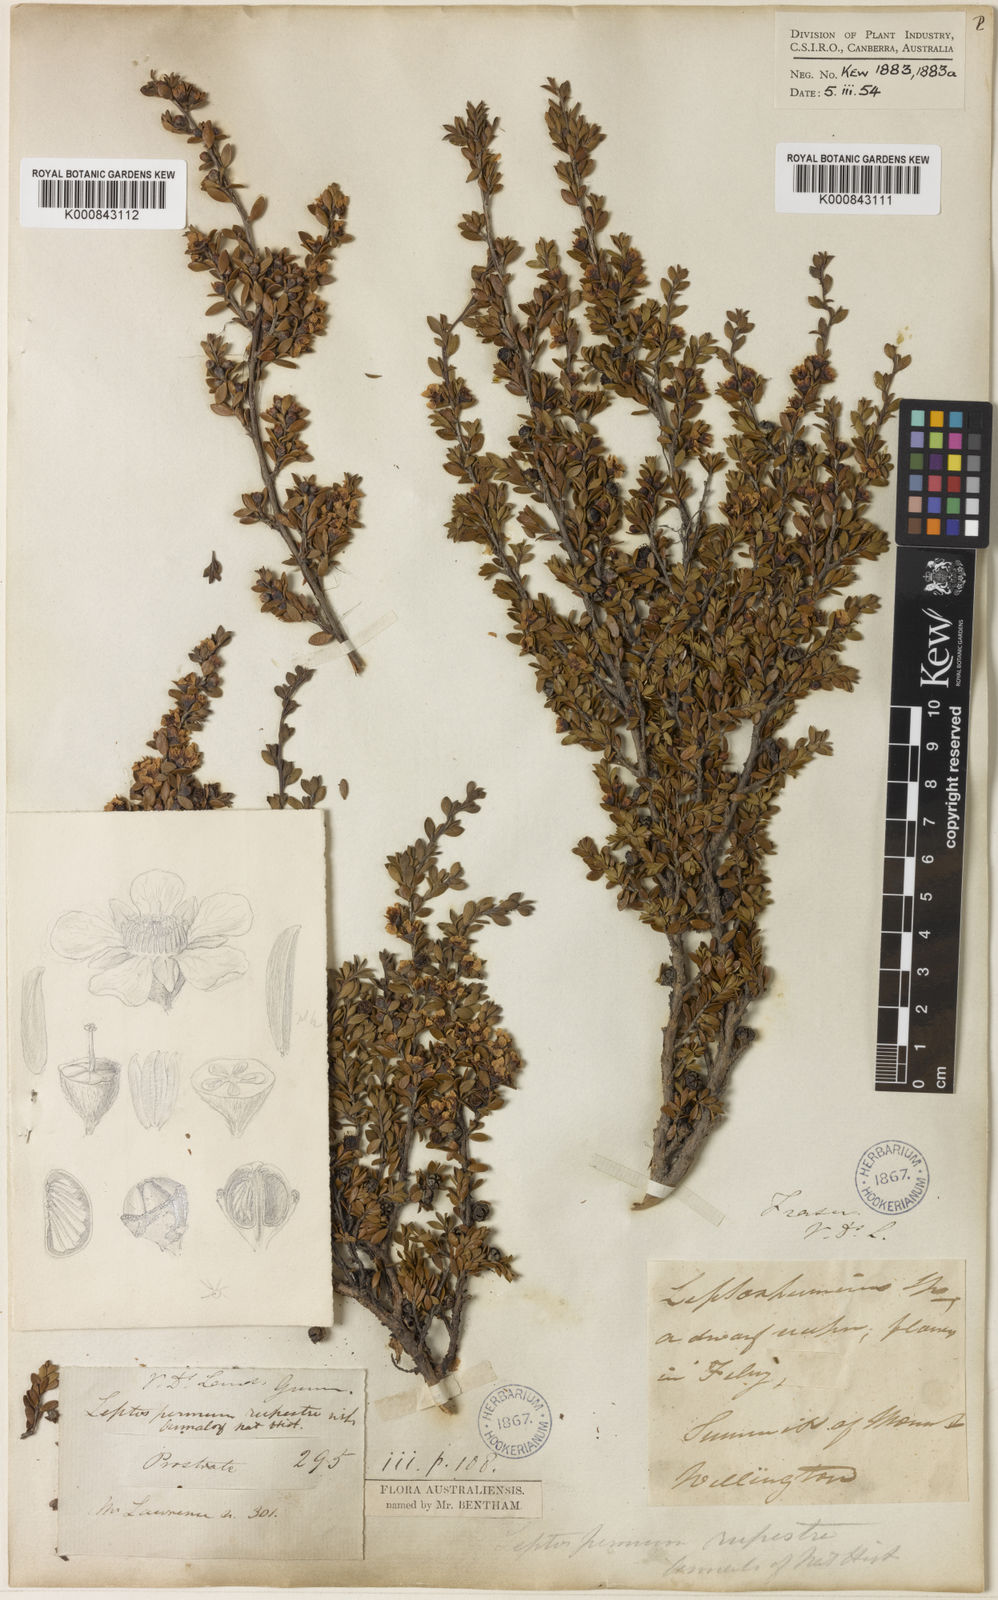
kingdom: Plantae
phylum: Tracheophyta
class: Magnoliopsida
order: Myrtales
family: Myrtaceae
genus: Leptospermum
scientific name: Leptospermum rupestre
